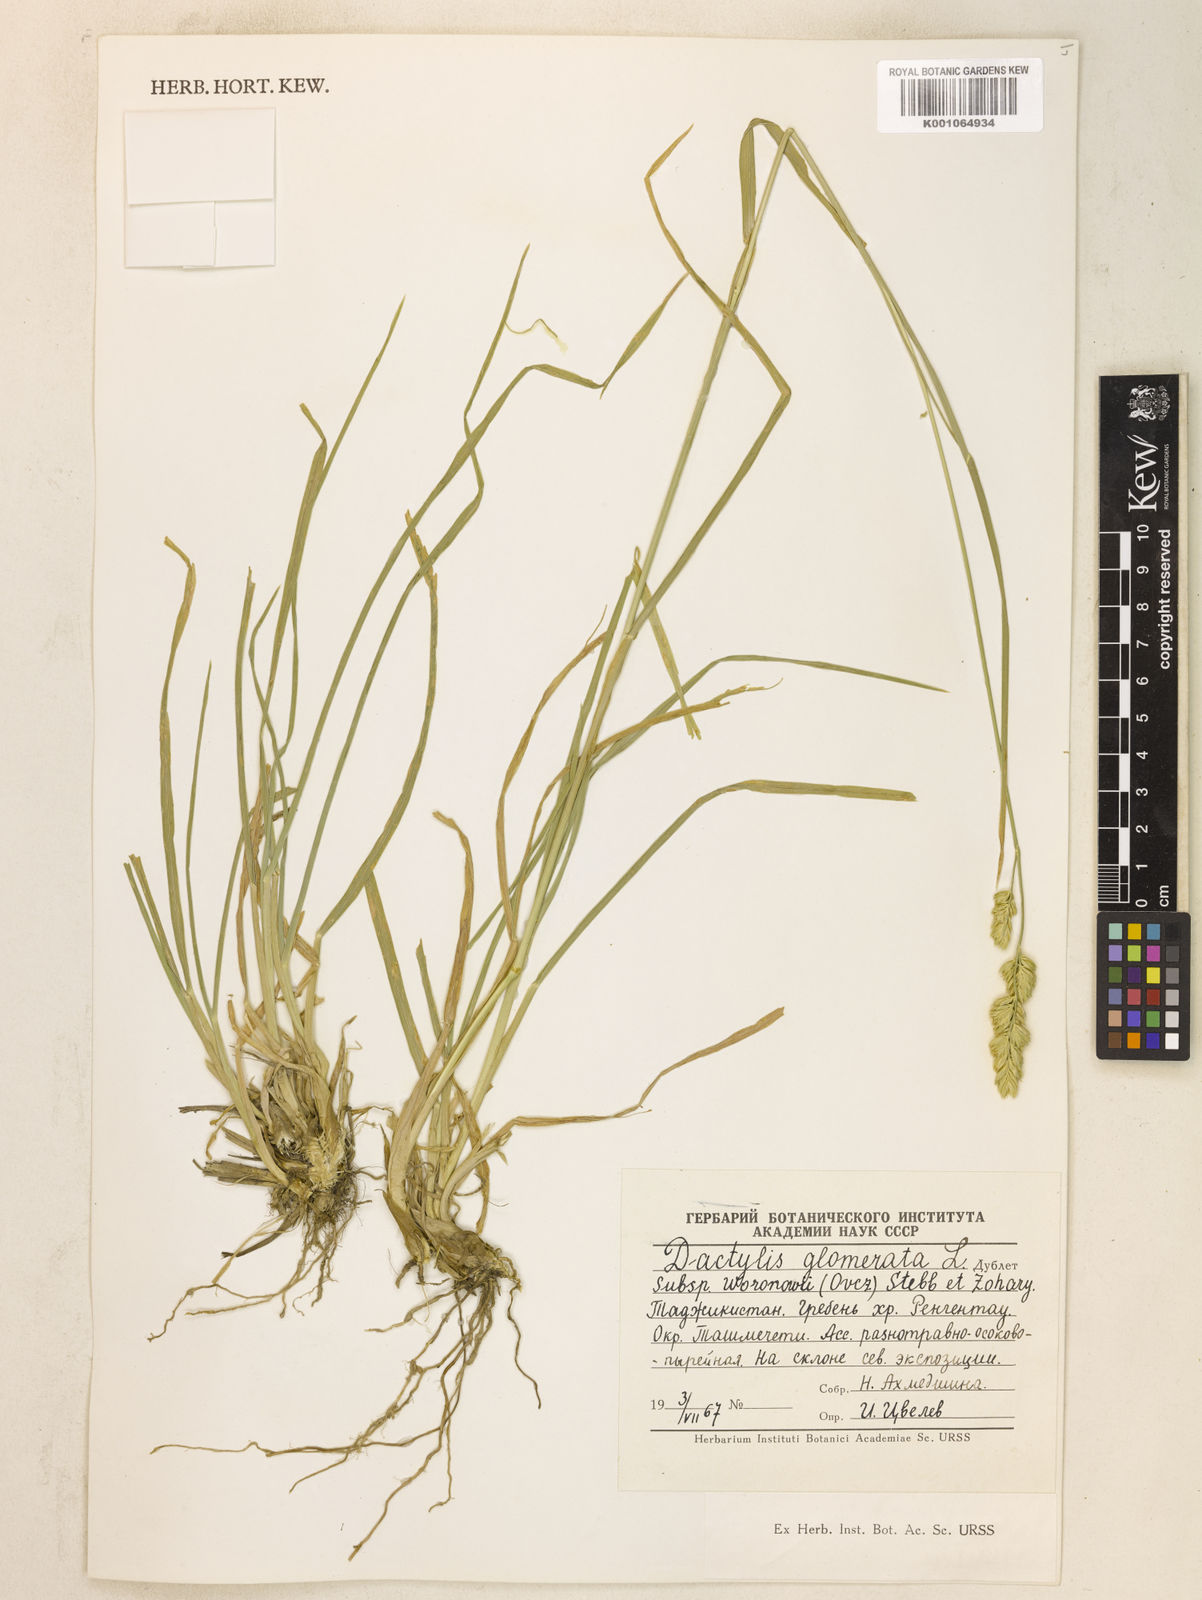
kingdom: Plantae
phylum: Tracheophyta
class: Liliopsida
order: Poales
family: Poaceae
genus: Dactylis
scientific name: Dactylis glomerata
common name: Orchardgrass
